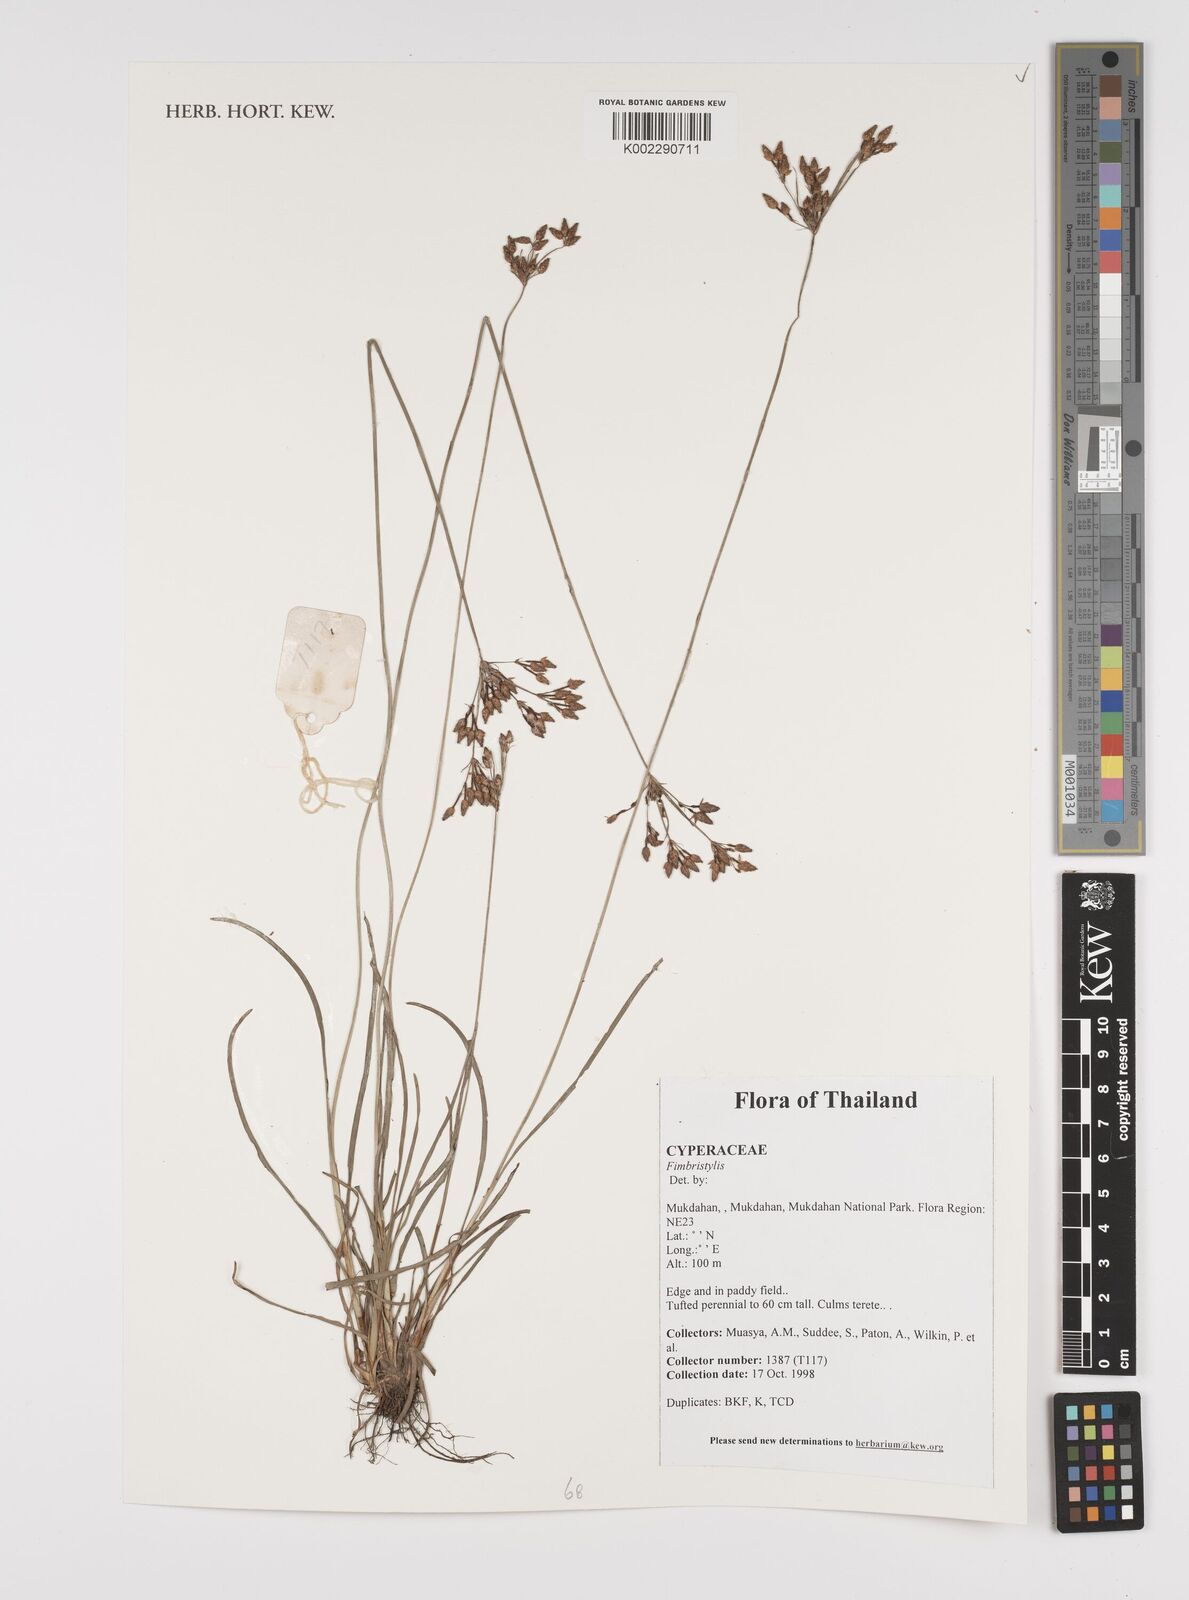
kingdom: Plantae
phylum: Tracheophyta
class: Liliopsida
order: Poales
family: Cyperaceae
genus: Fimbristylis
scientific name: Fimbristylis
